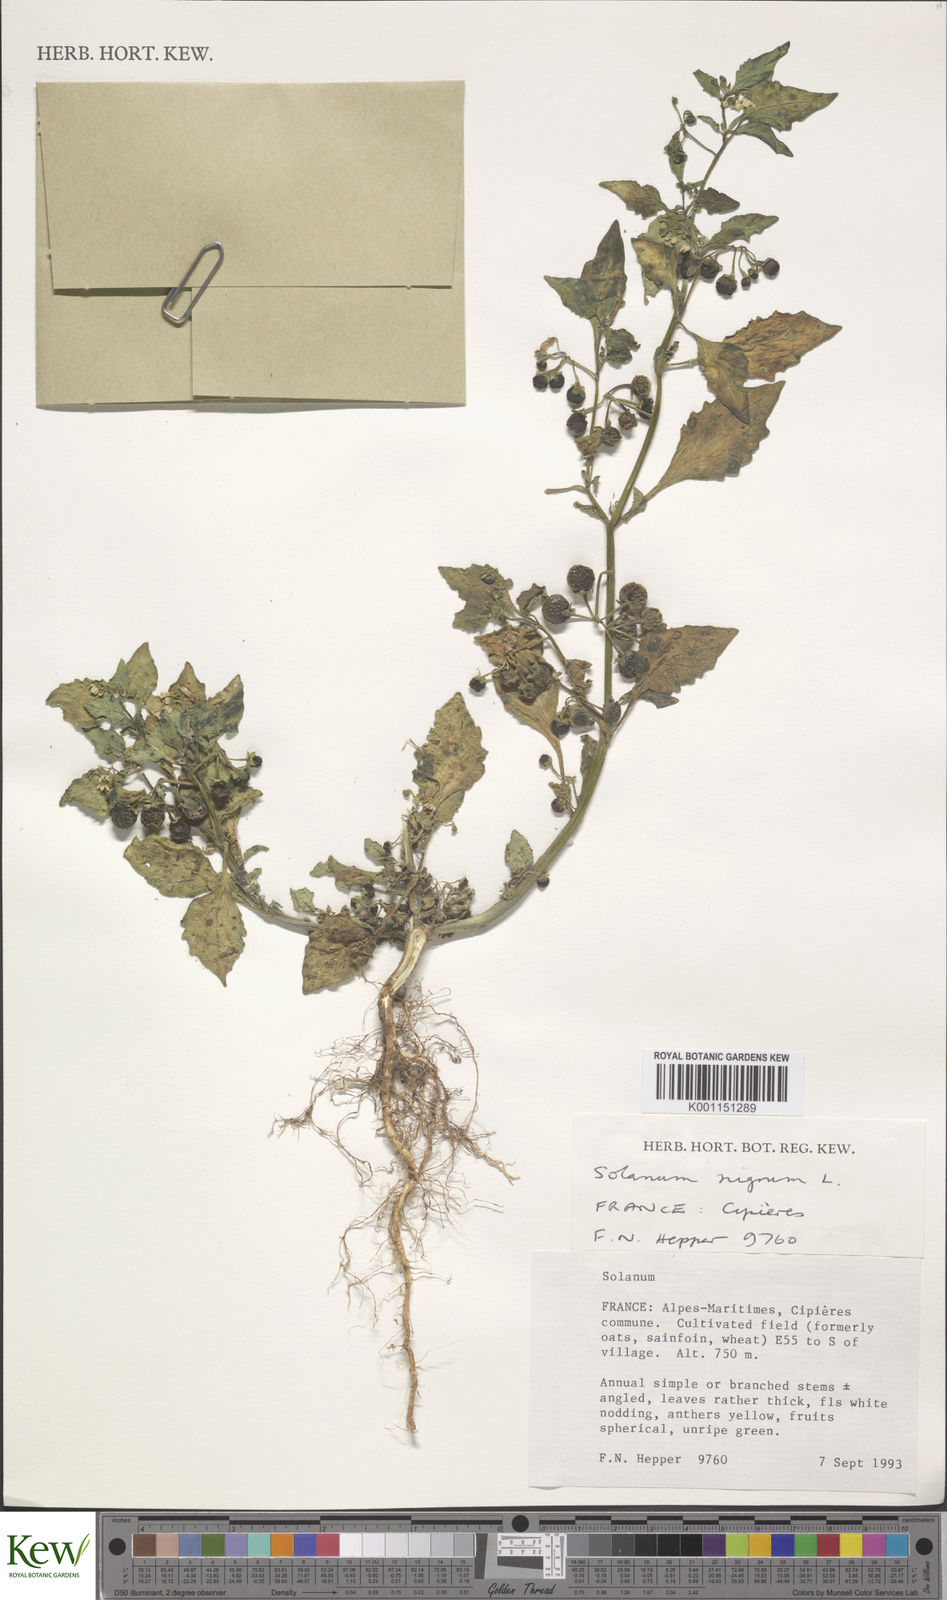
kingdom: Plantae
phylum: Tracheophyta
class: Magnoliopsida
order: Solanales
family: Solanaceae
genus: Solanum
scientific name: Solanum nigrum
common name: Black nightshade
